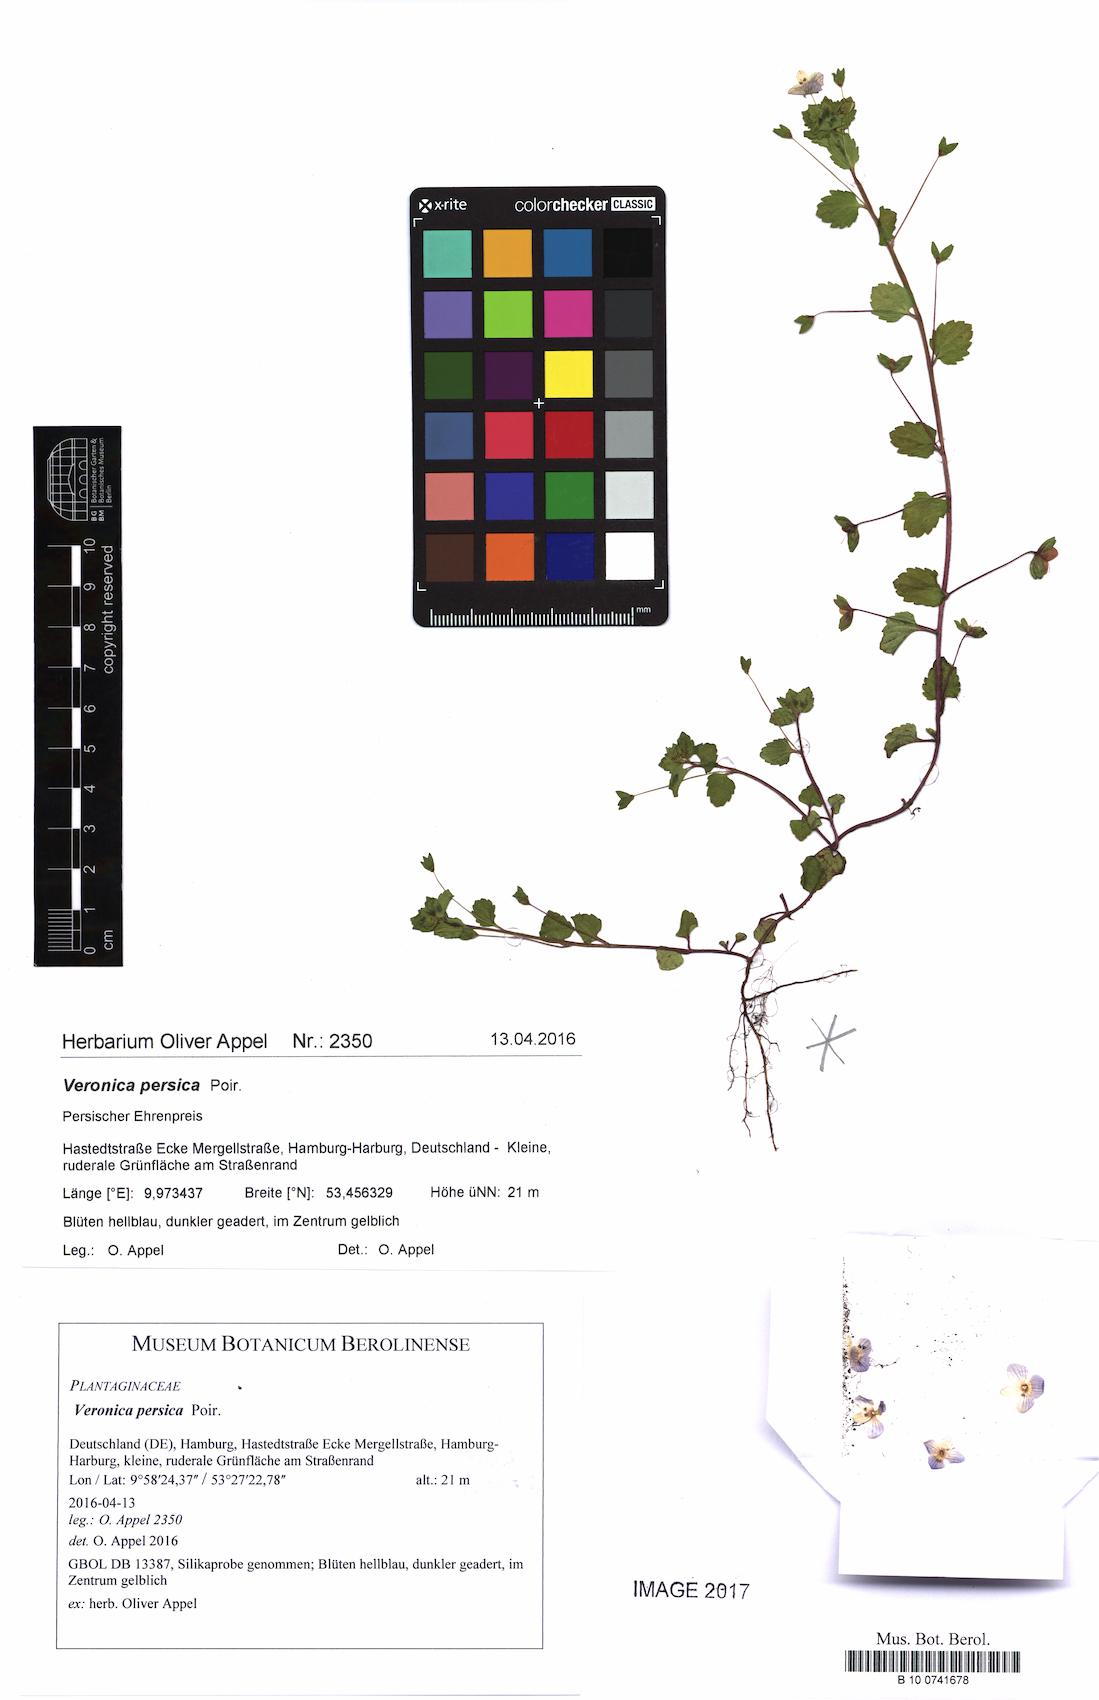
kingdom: Plantae
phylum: Tracheophyta
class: Magnoliopsida
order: Lamiales
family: Plantaginaceae
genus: Veronica
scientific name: Veronica persica
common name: Common field-speedwell
